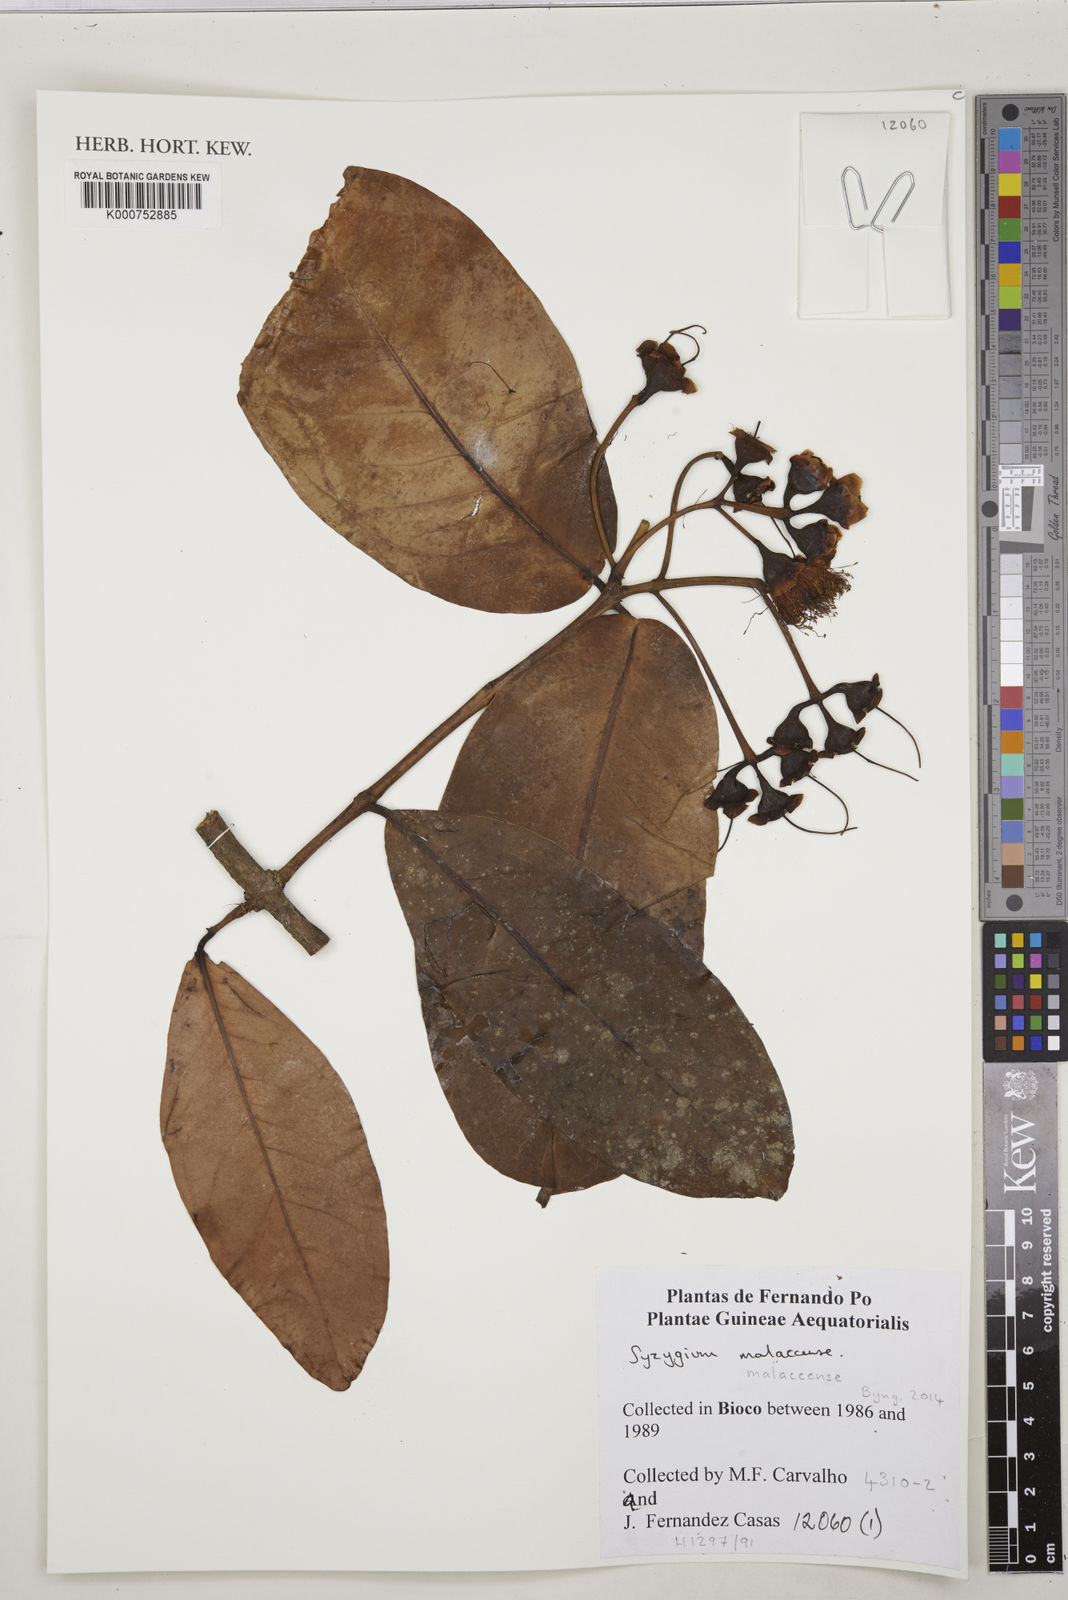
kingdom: Plantae
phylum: Tracheophyta
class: Magnoliopsida
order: Myrtales
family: Myrtaceae
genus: Syzygium
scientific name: Syzygium malaccense
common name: Malaysian apple
